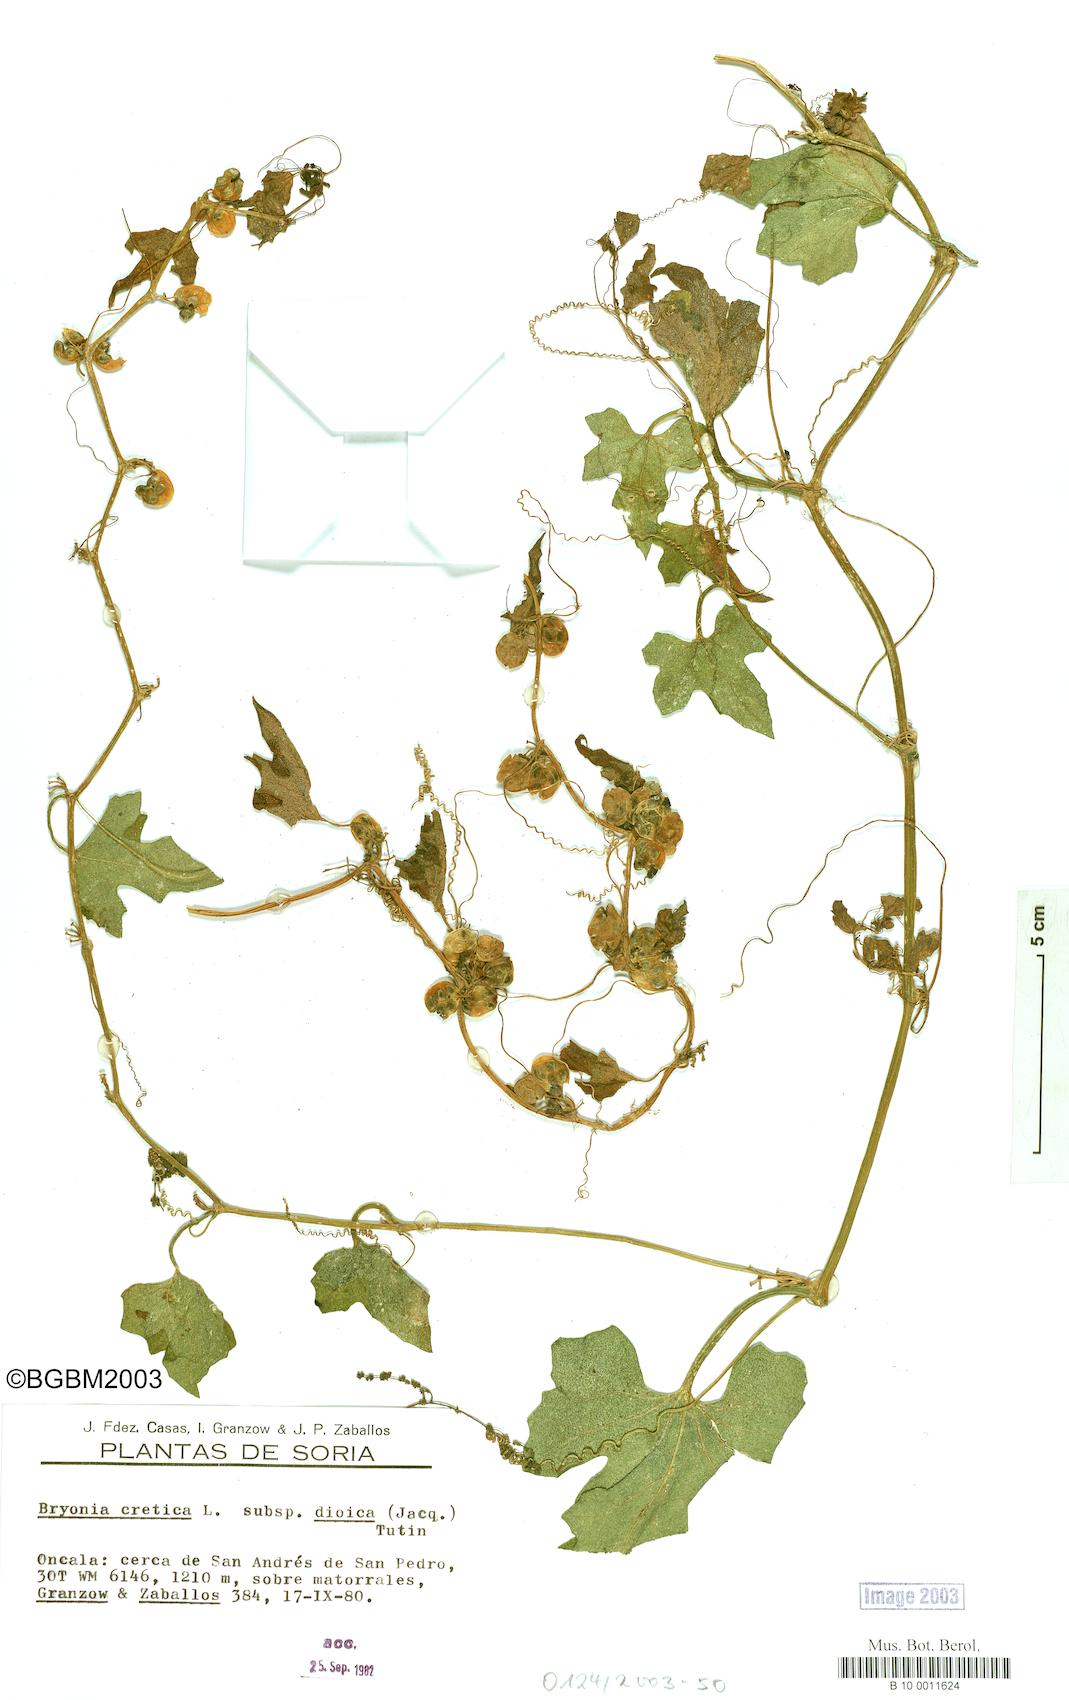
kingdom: Plantae
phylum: Tracheophyta
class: Magnoliopsida
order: Cucurbitales
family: Cucurbitaceae
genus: Bryonia
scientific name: Bryonia dioica
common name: White bryony
